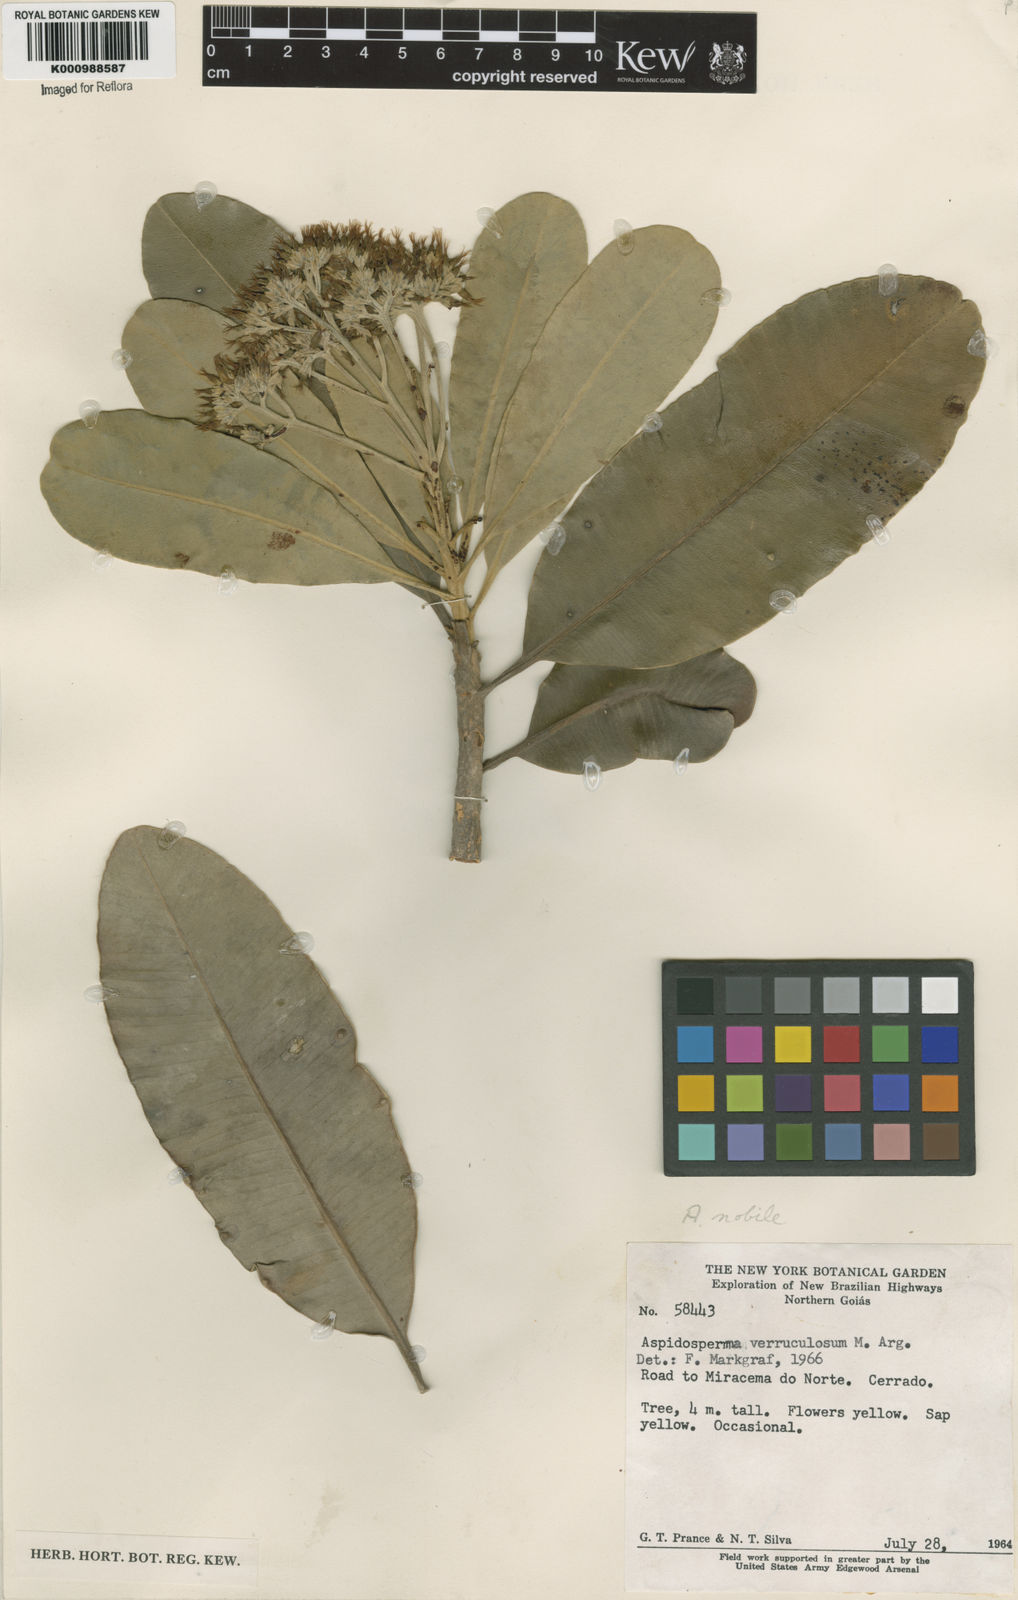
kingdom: Plantae
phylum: Tracheophyta
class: Magnoliopsida
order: Gentianales
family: Apocynaceae
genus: Aspidosperma
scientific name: Aspidosperma
